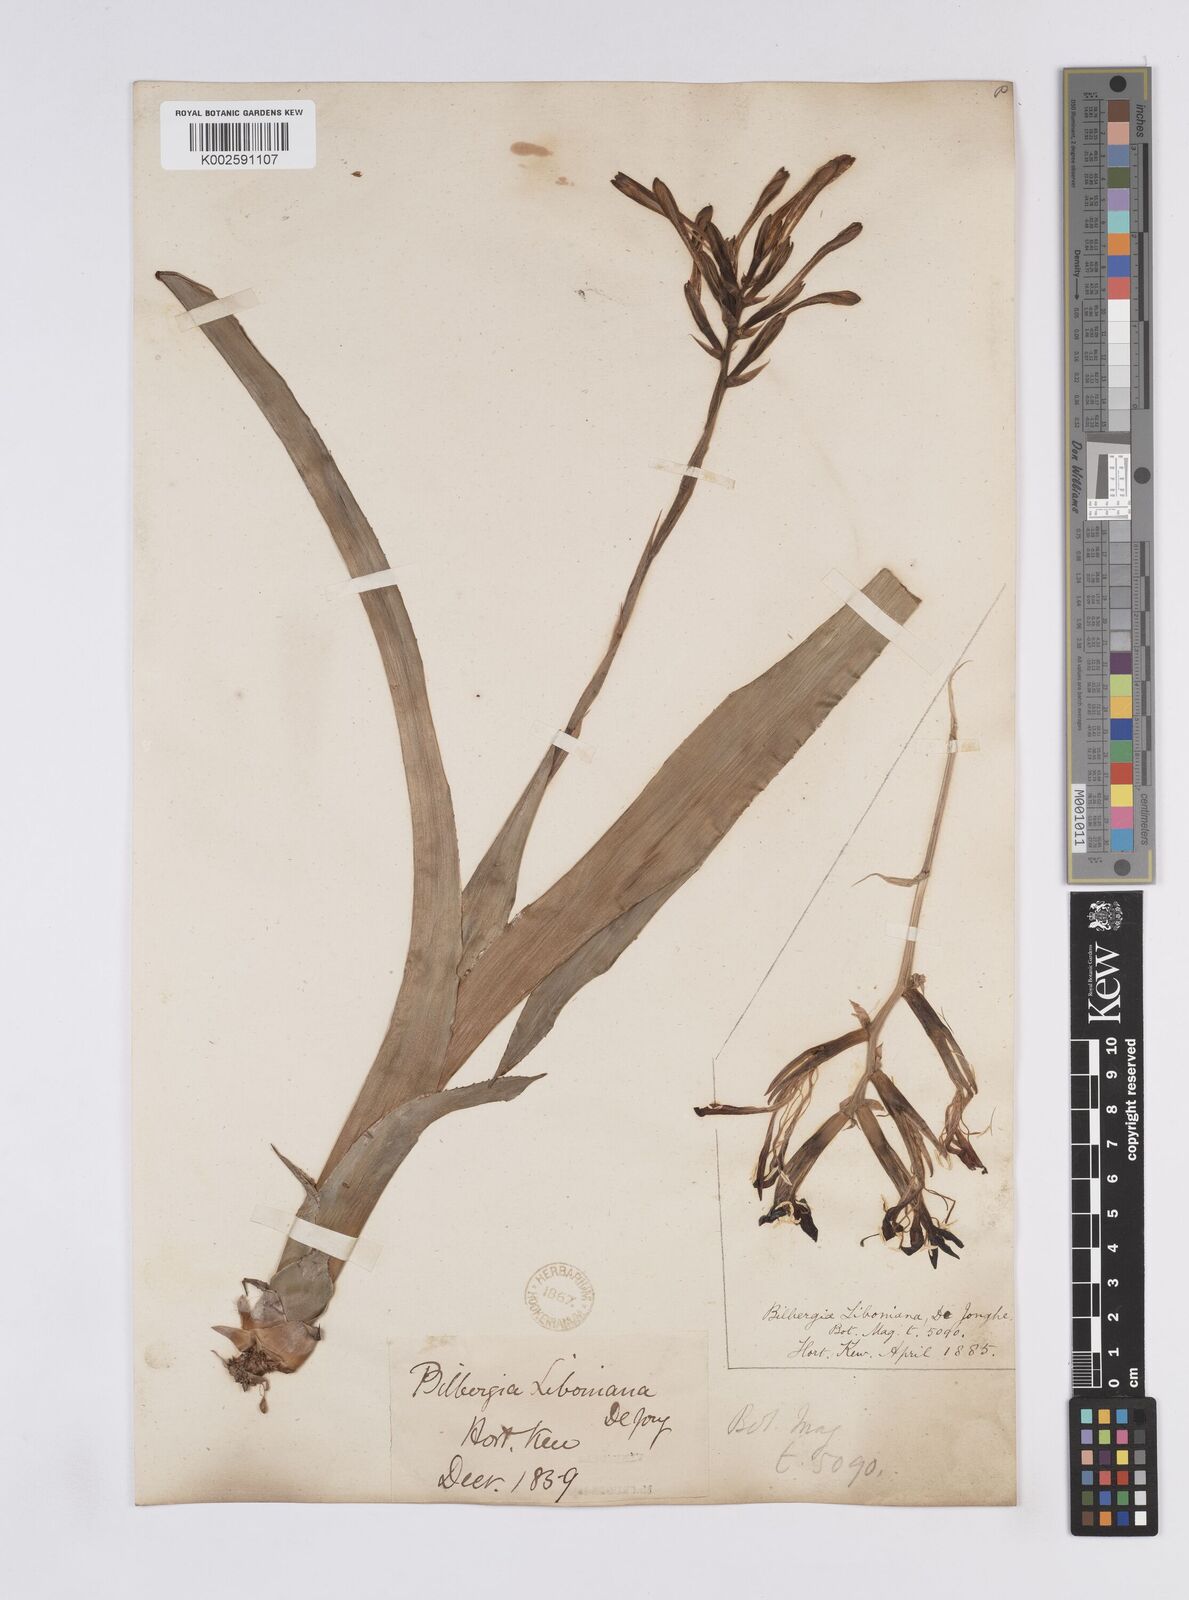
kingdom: Plantae
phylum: Tracheophyta
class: Liliopsida
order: Poales
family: Bromeliaceae
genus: Quesnelia
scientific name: Quesnelia liboniana
